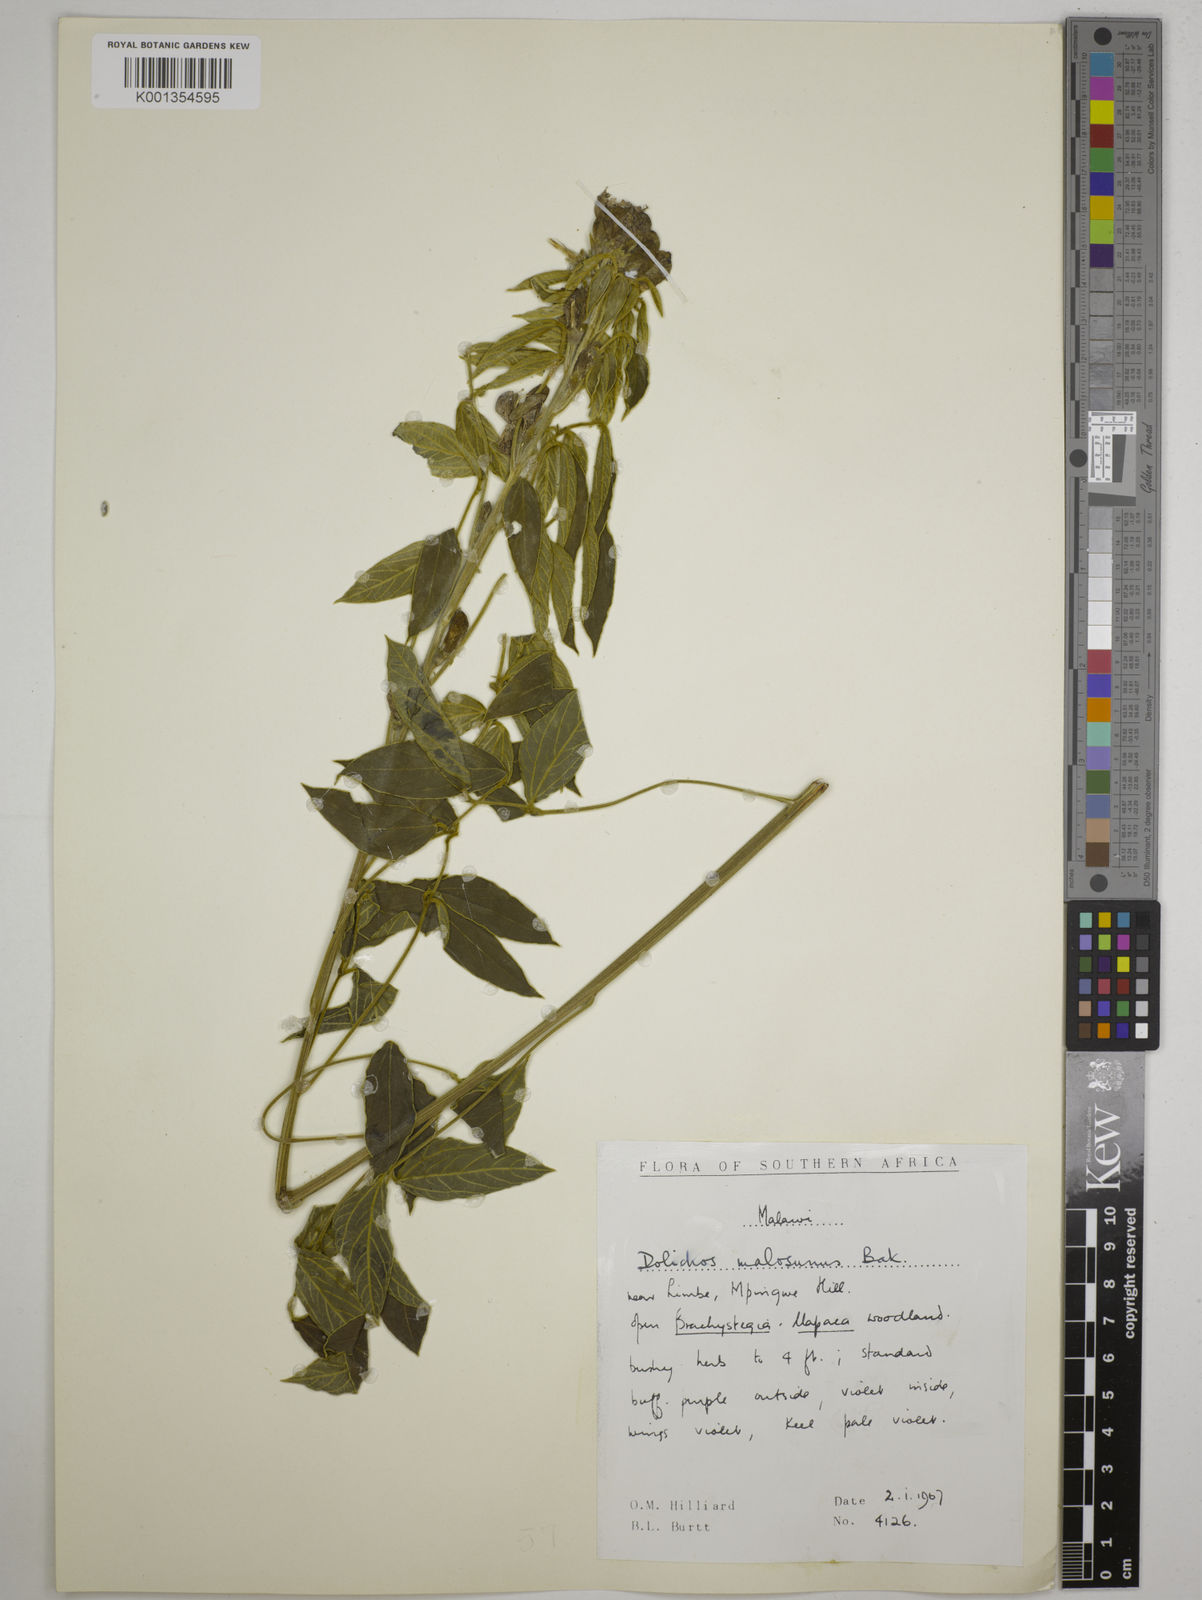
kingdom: Plantae
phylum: Tracheophyta
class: Magnoliopsida
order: Fabales
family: Fabaceae
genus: Dolichos
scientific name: Dolichos kilimandscharicus
